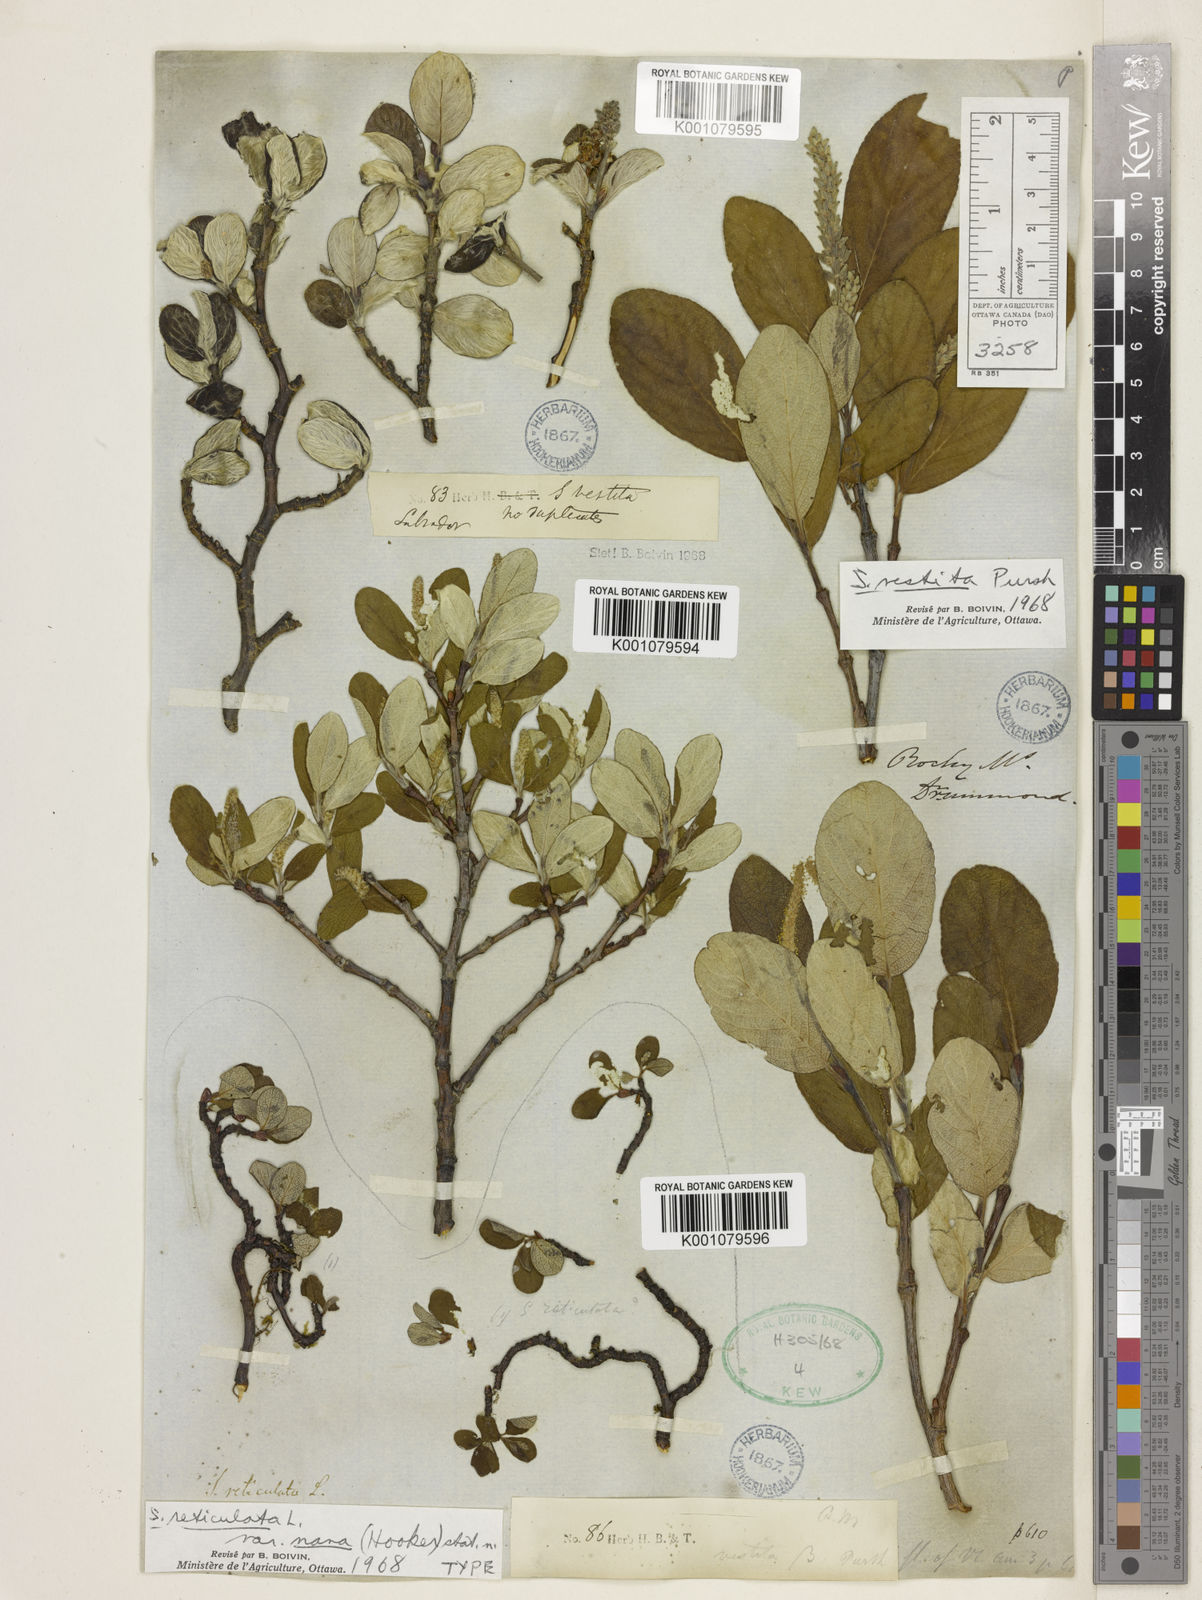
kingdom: Plantae
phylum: Tracheophyta
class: Magnoliopsida
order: Malpighiales
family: Salicaceae
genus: Salix
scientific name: Salix vestita
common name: Hairy willow
